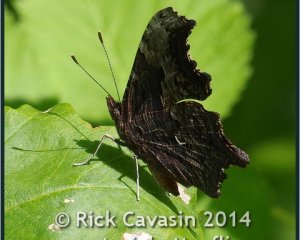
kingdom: Animalia
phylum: Arthropoda
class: Insecta
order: Lepidoptera
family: Nymphalidae
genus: Polygonia
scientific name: Polygonia progne
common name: Gray Comma
